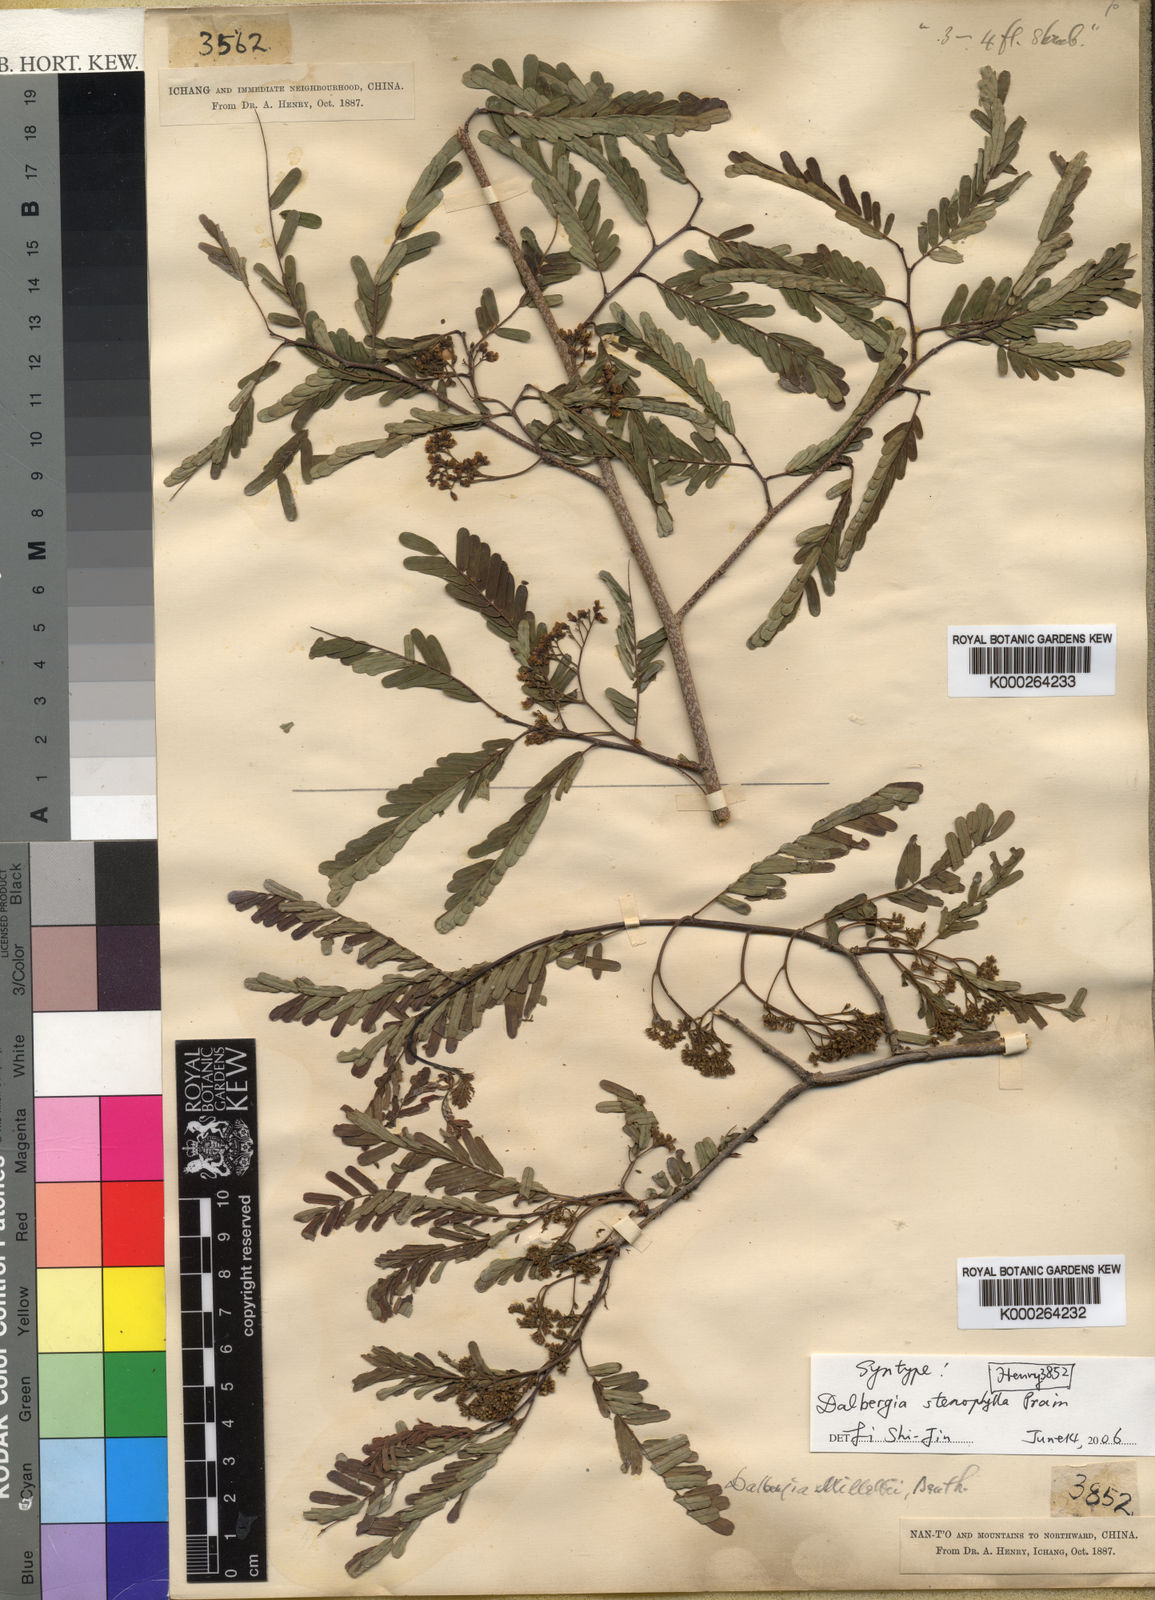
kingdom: Plantae
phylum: Tracheophyta
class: Magnoliopsida
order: Fabales
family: Fabaceae
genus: Dalbergia
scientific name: Dalbergia stenophylla
